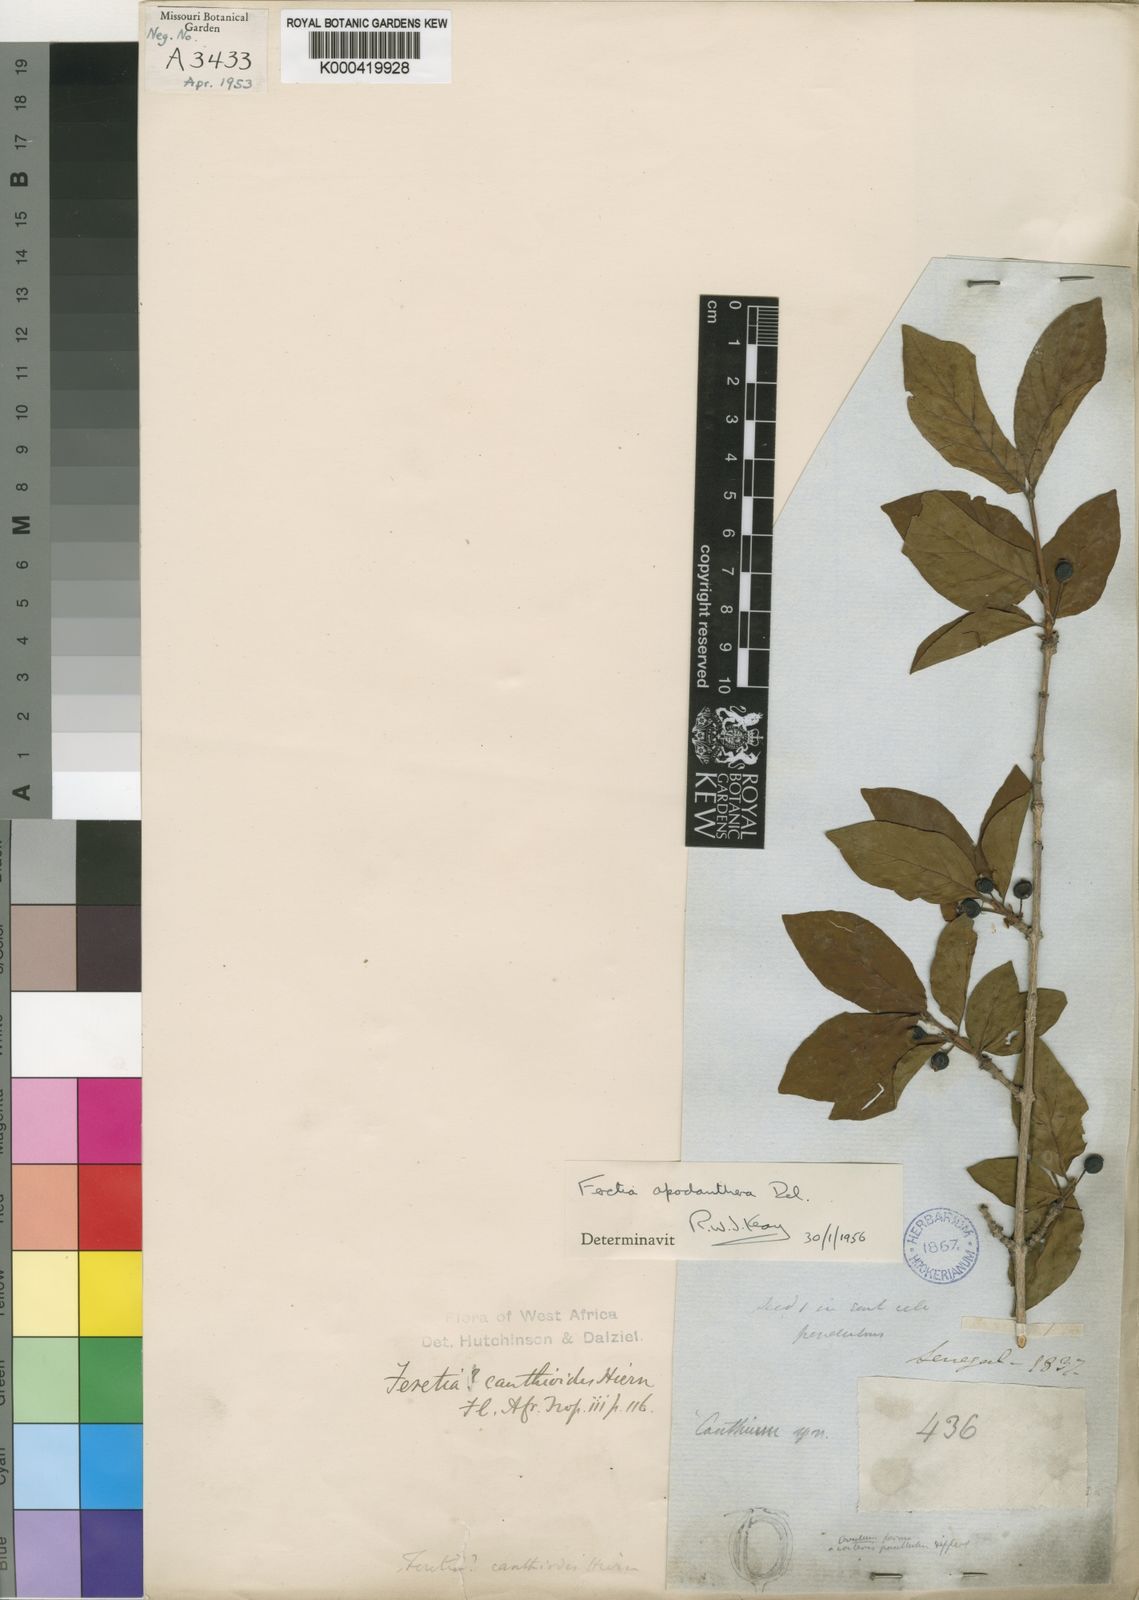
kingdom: Plantae
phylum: Tracheophyta
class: Magnoliopsida
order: Gentianales
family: Rubiaceae
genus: Feretia
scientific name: Feretia apodanthera
